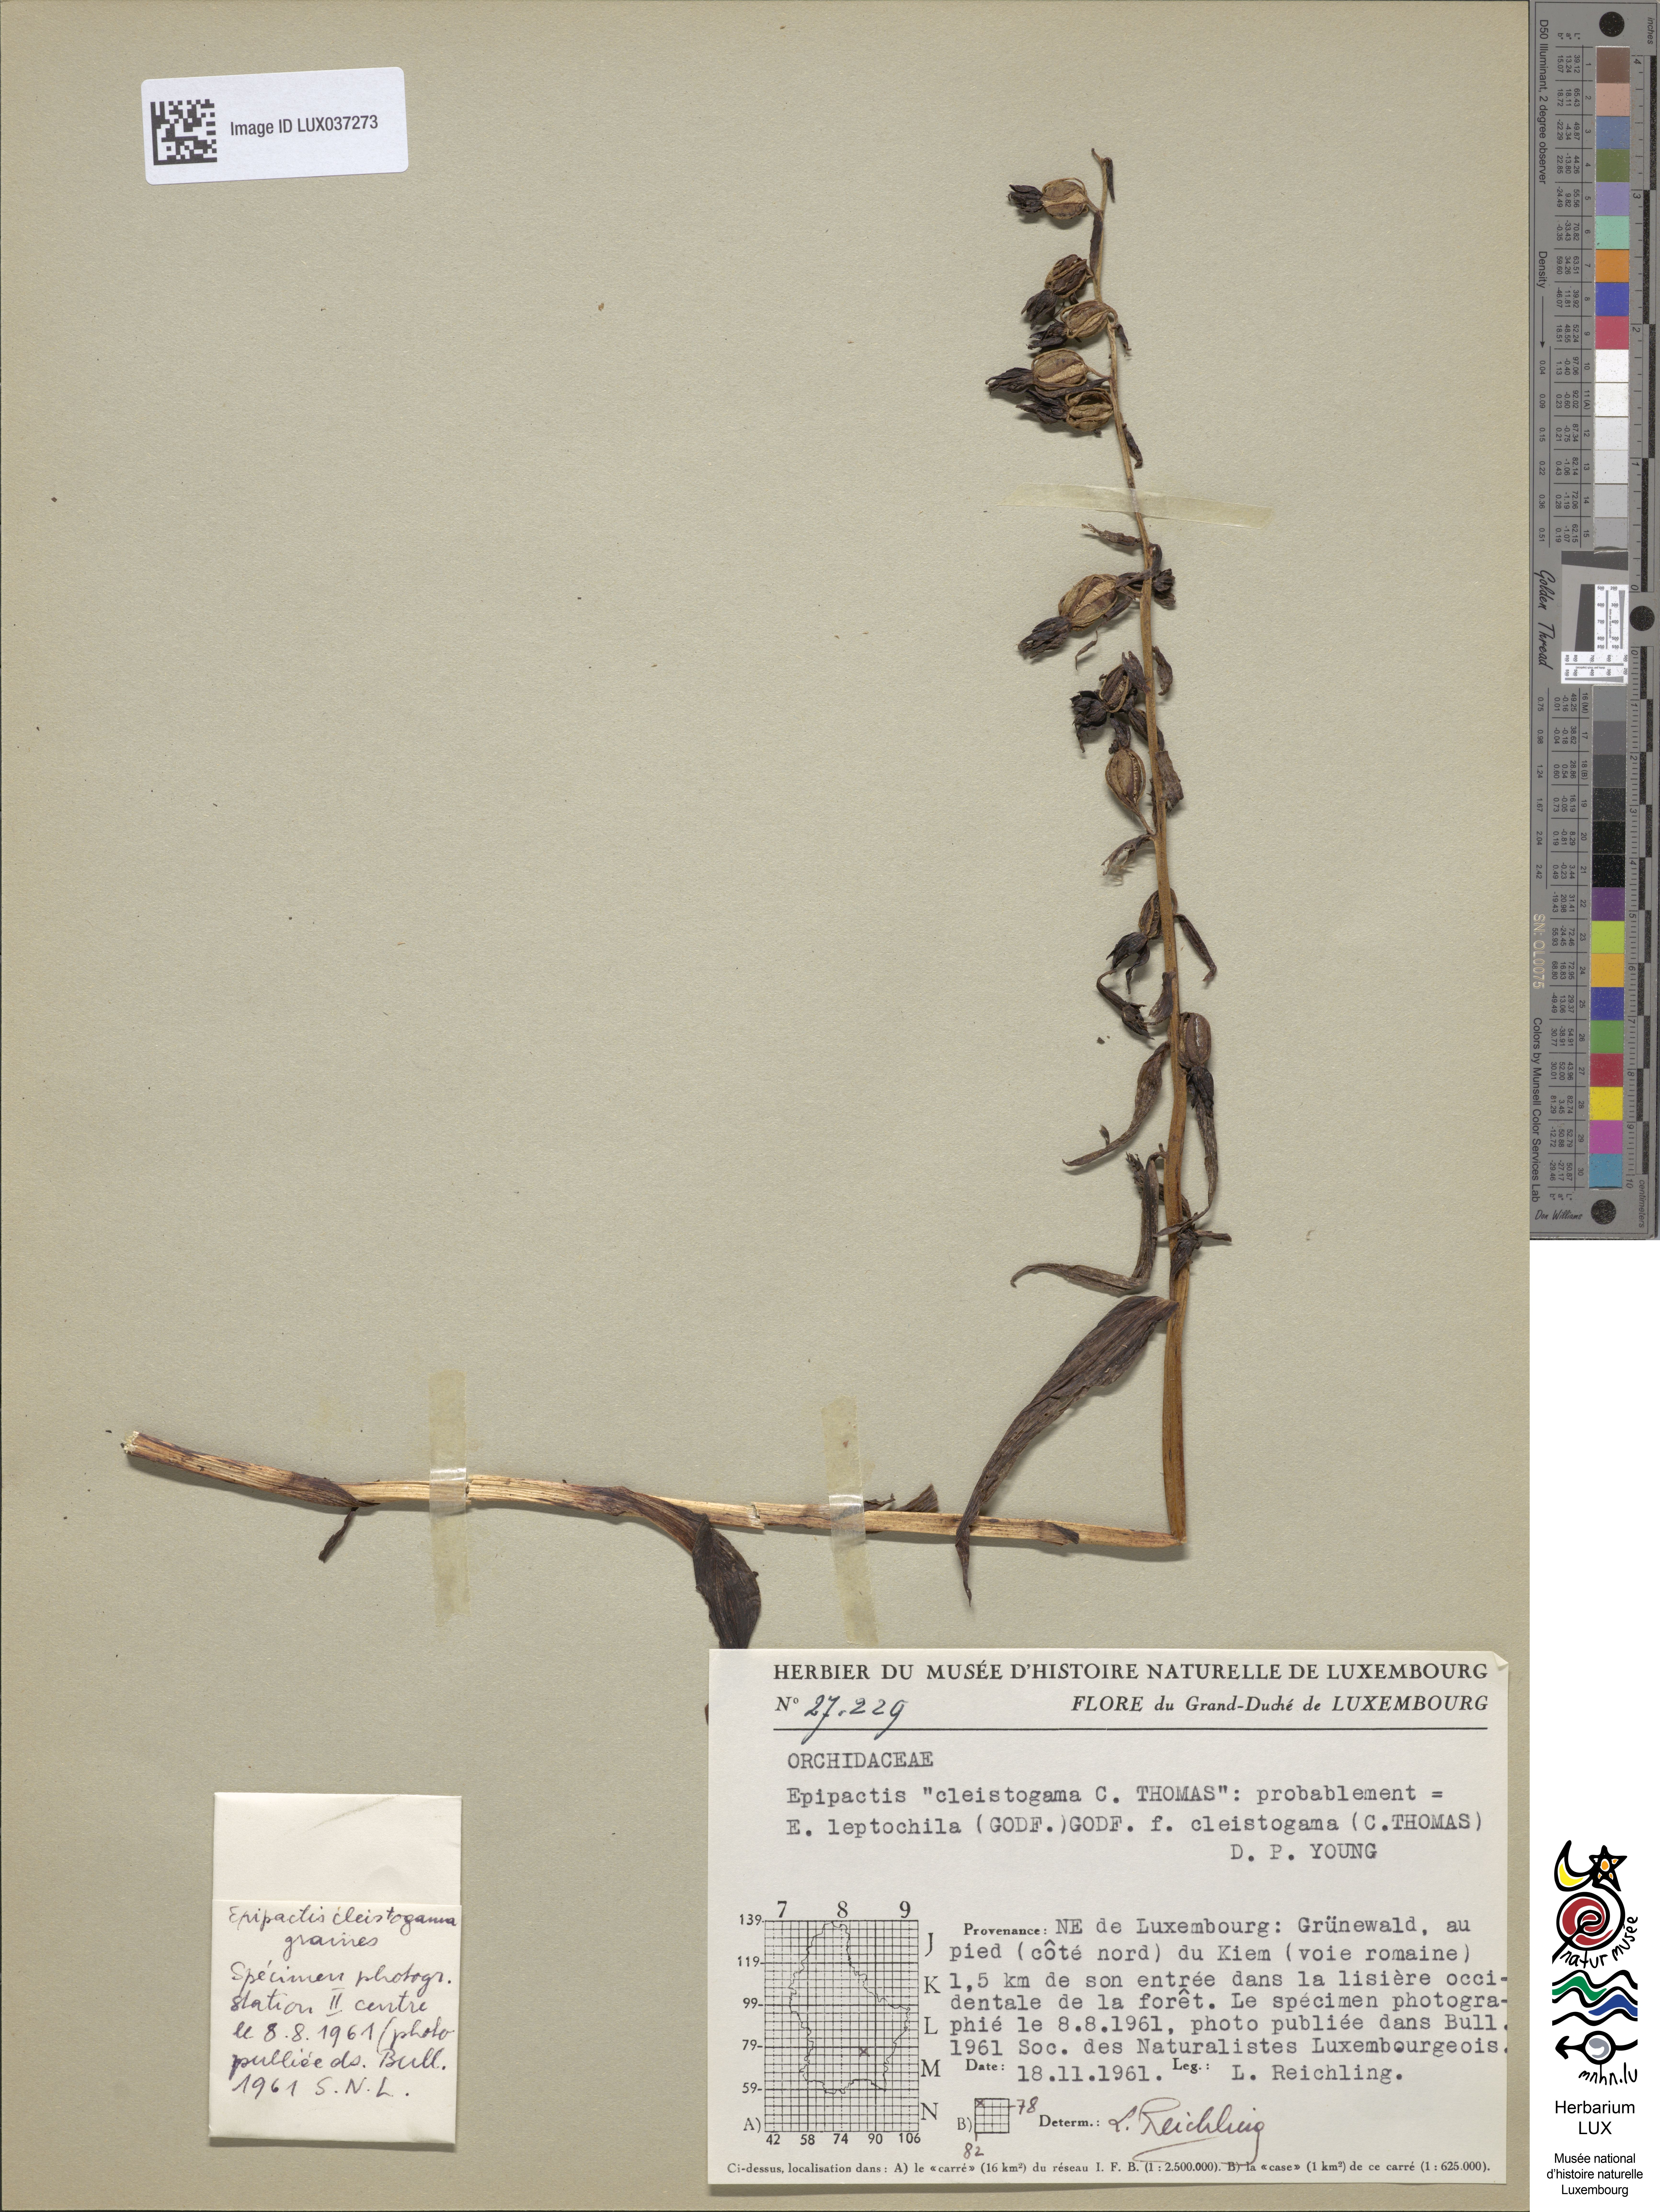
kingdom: Plantae
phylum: Tracheophyta
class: Liliopsida
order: Asparagales
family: Orchidaceae
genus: Epipactis
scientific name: Epipactis leptochila
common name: Narrow-lipped helleborine
